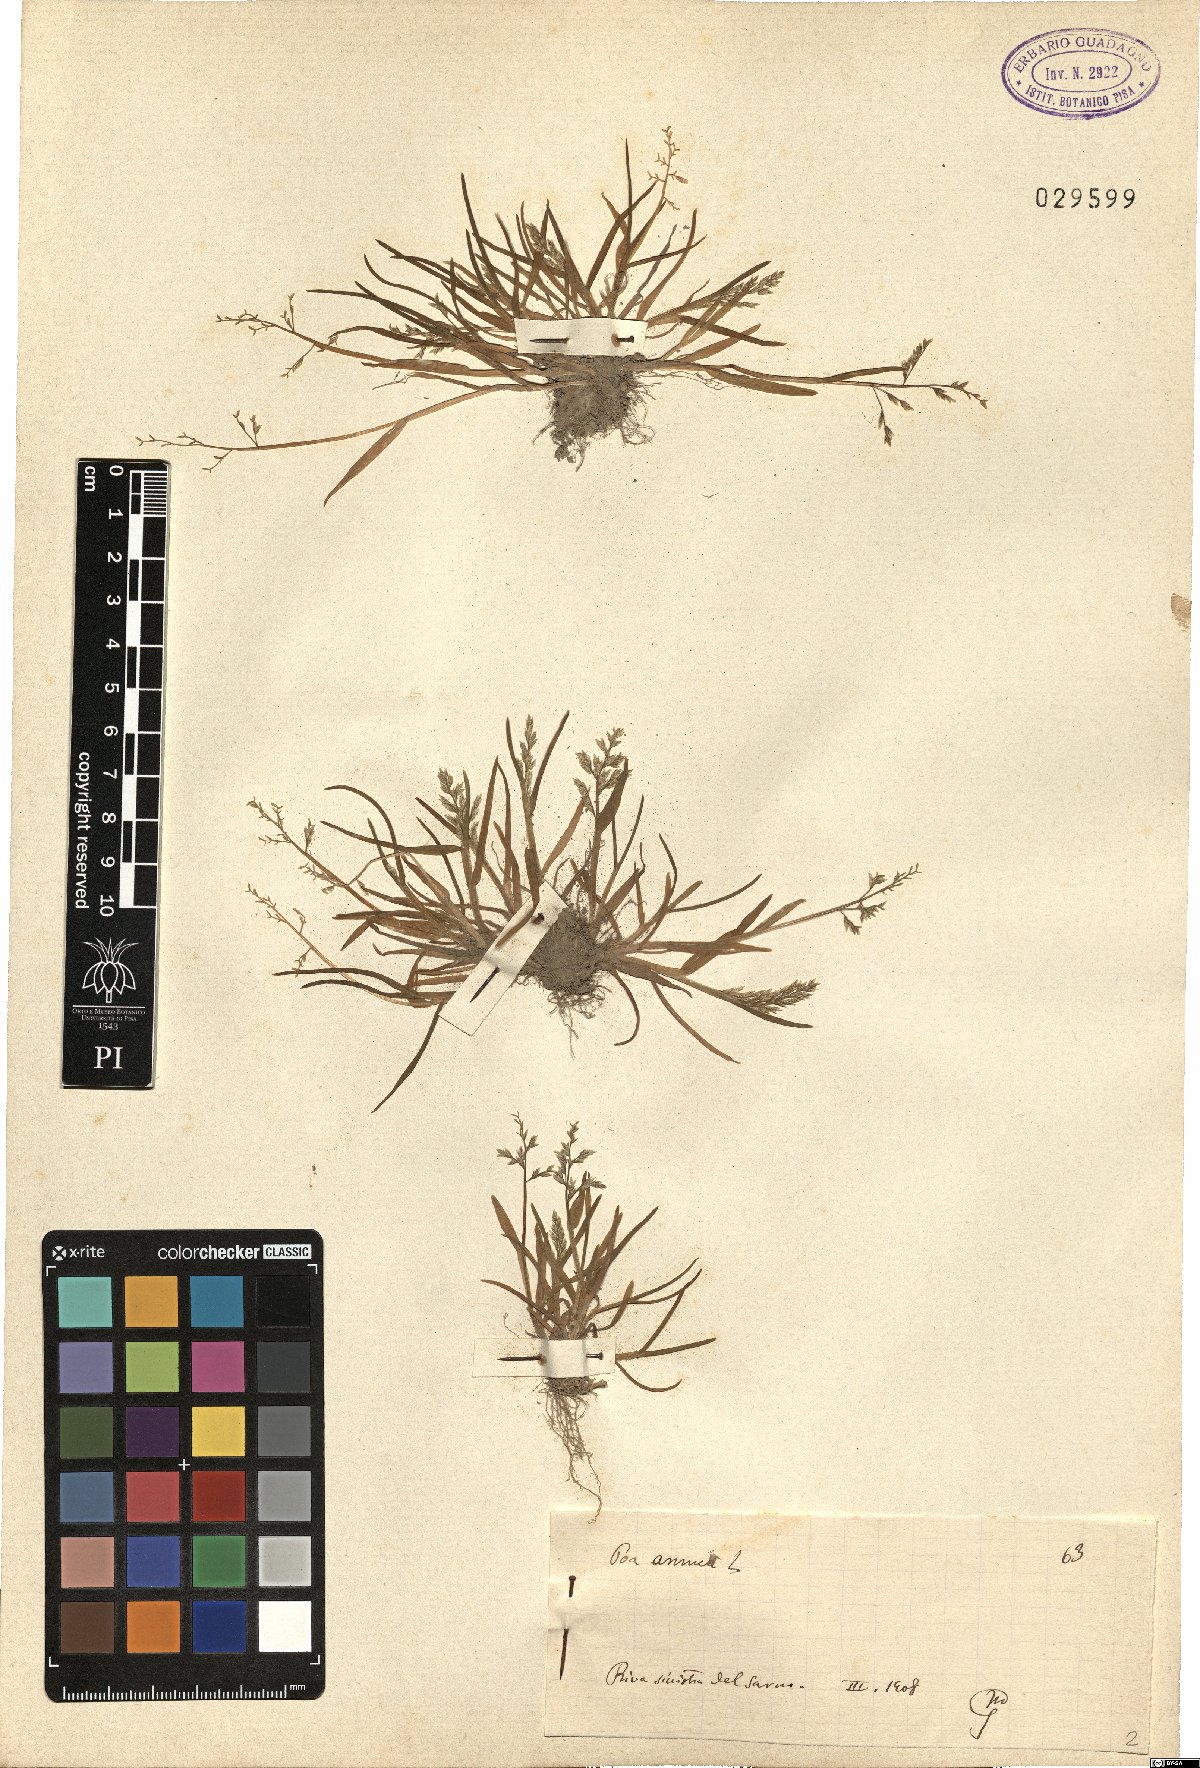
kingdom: Plantae
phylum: Tracheophyta
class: Liliopsida
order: Poales
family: Poaceae
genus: Poa
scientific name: Poa annua
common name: Annual bluegrass
